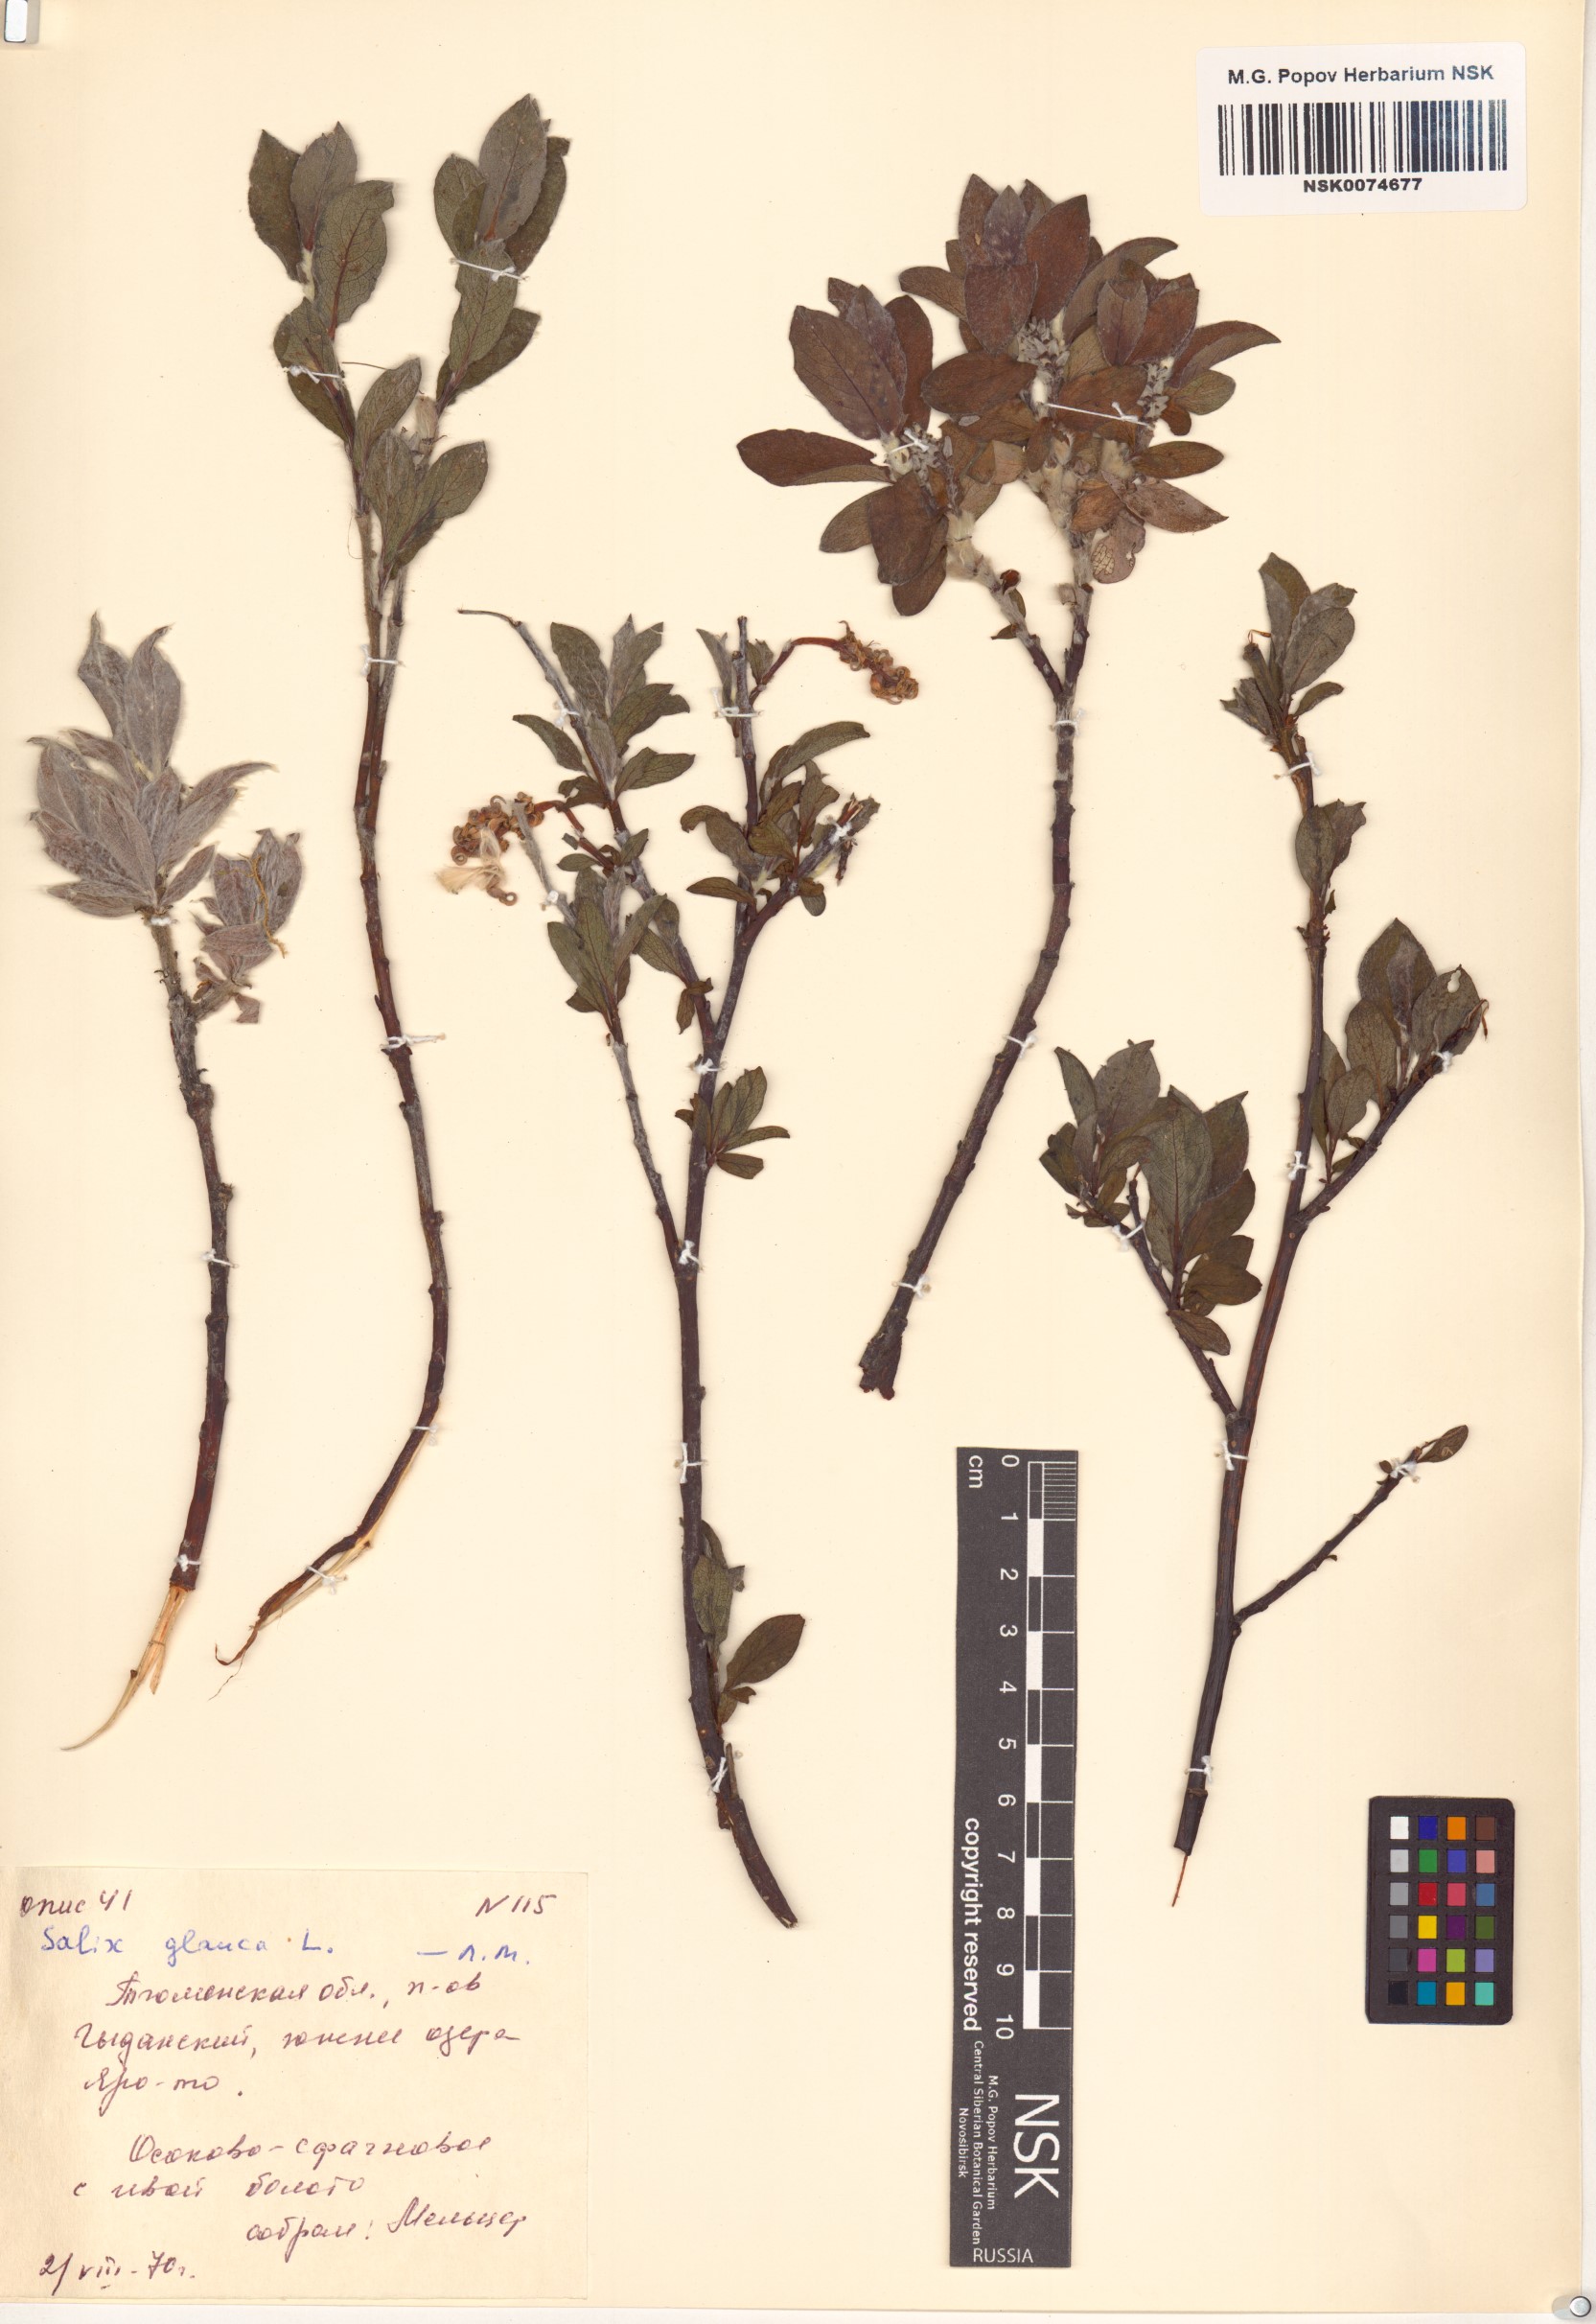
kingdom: Plantae
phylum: Tracheophyta
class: Magnoliopsida
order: Malpighiales
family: Salicaceae
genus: Salix
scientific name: Salix glauca
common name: Glaucous willow
